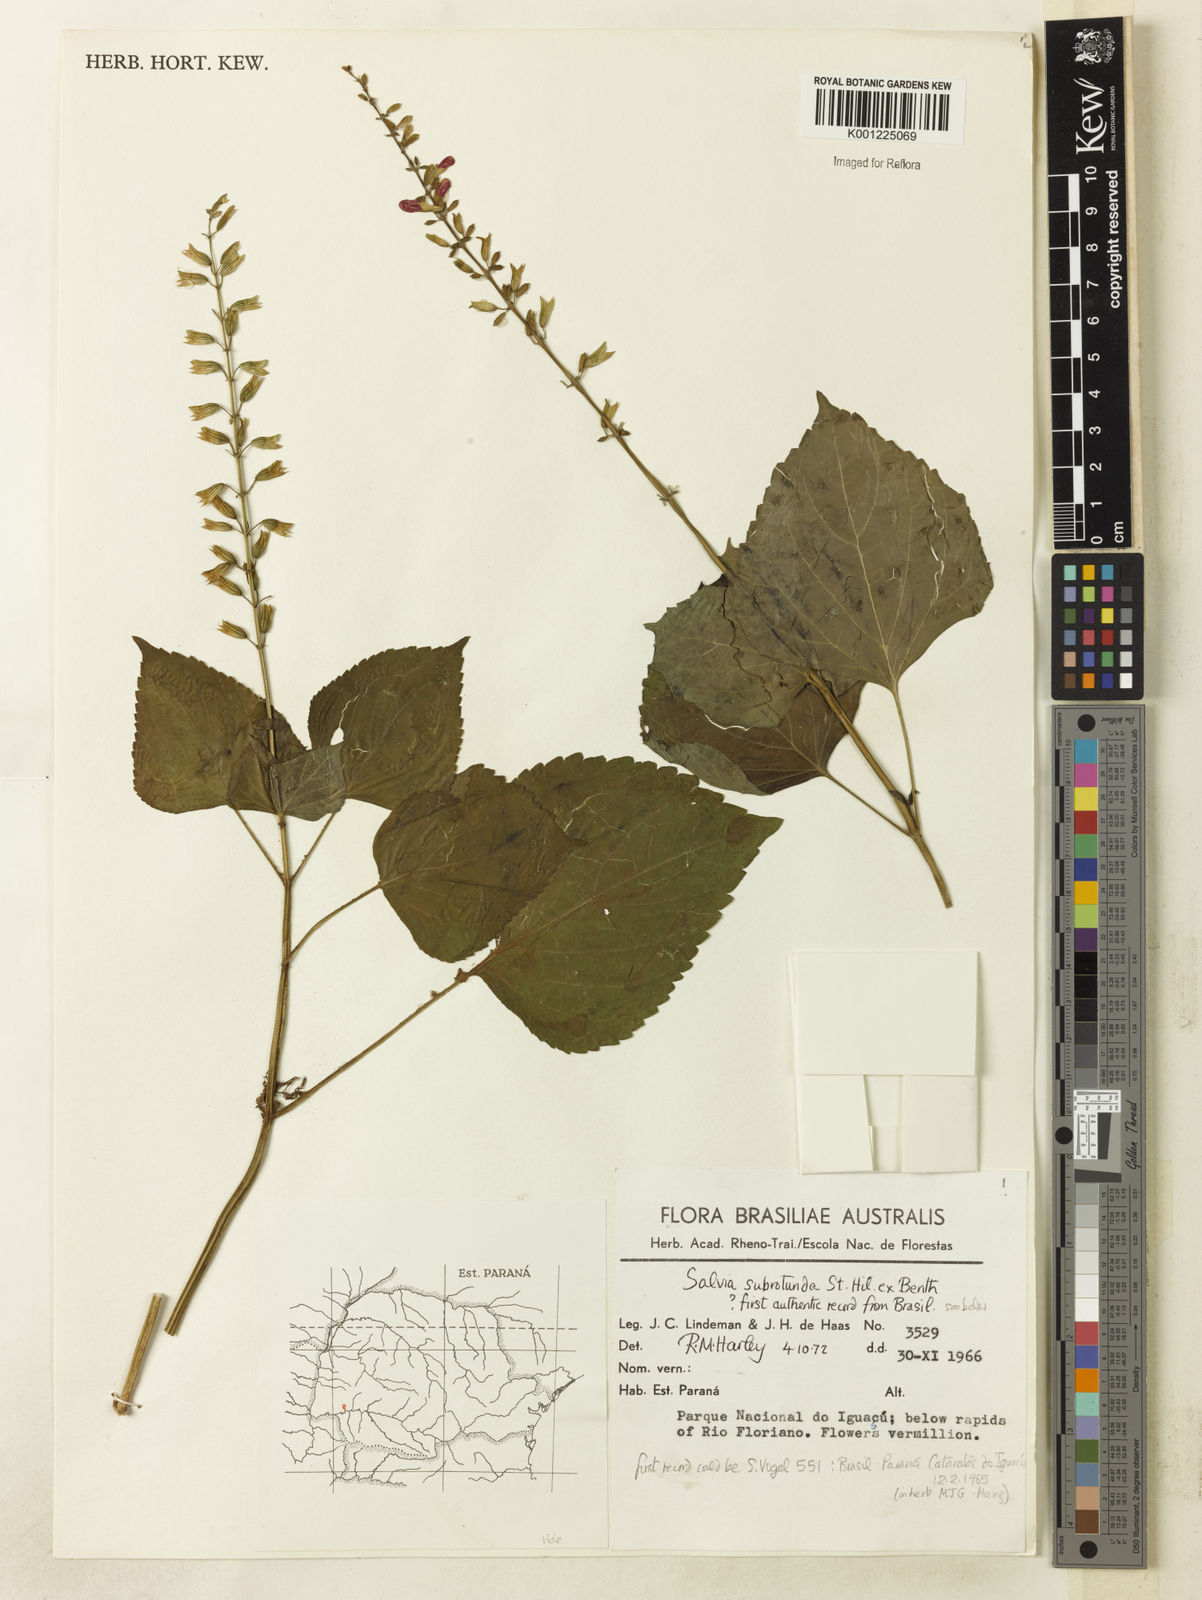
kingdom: Plantae
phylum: Tracheophyta
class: Magnoliopsida
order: Lamiales
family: Lamiaceae
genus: Salvia
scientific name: Salvia subrotunda
